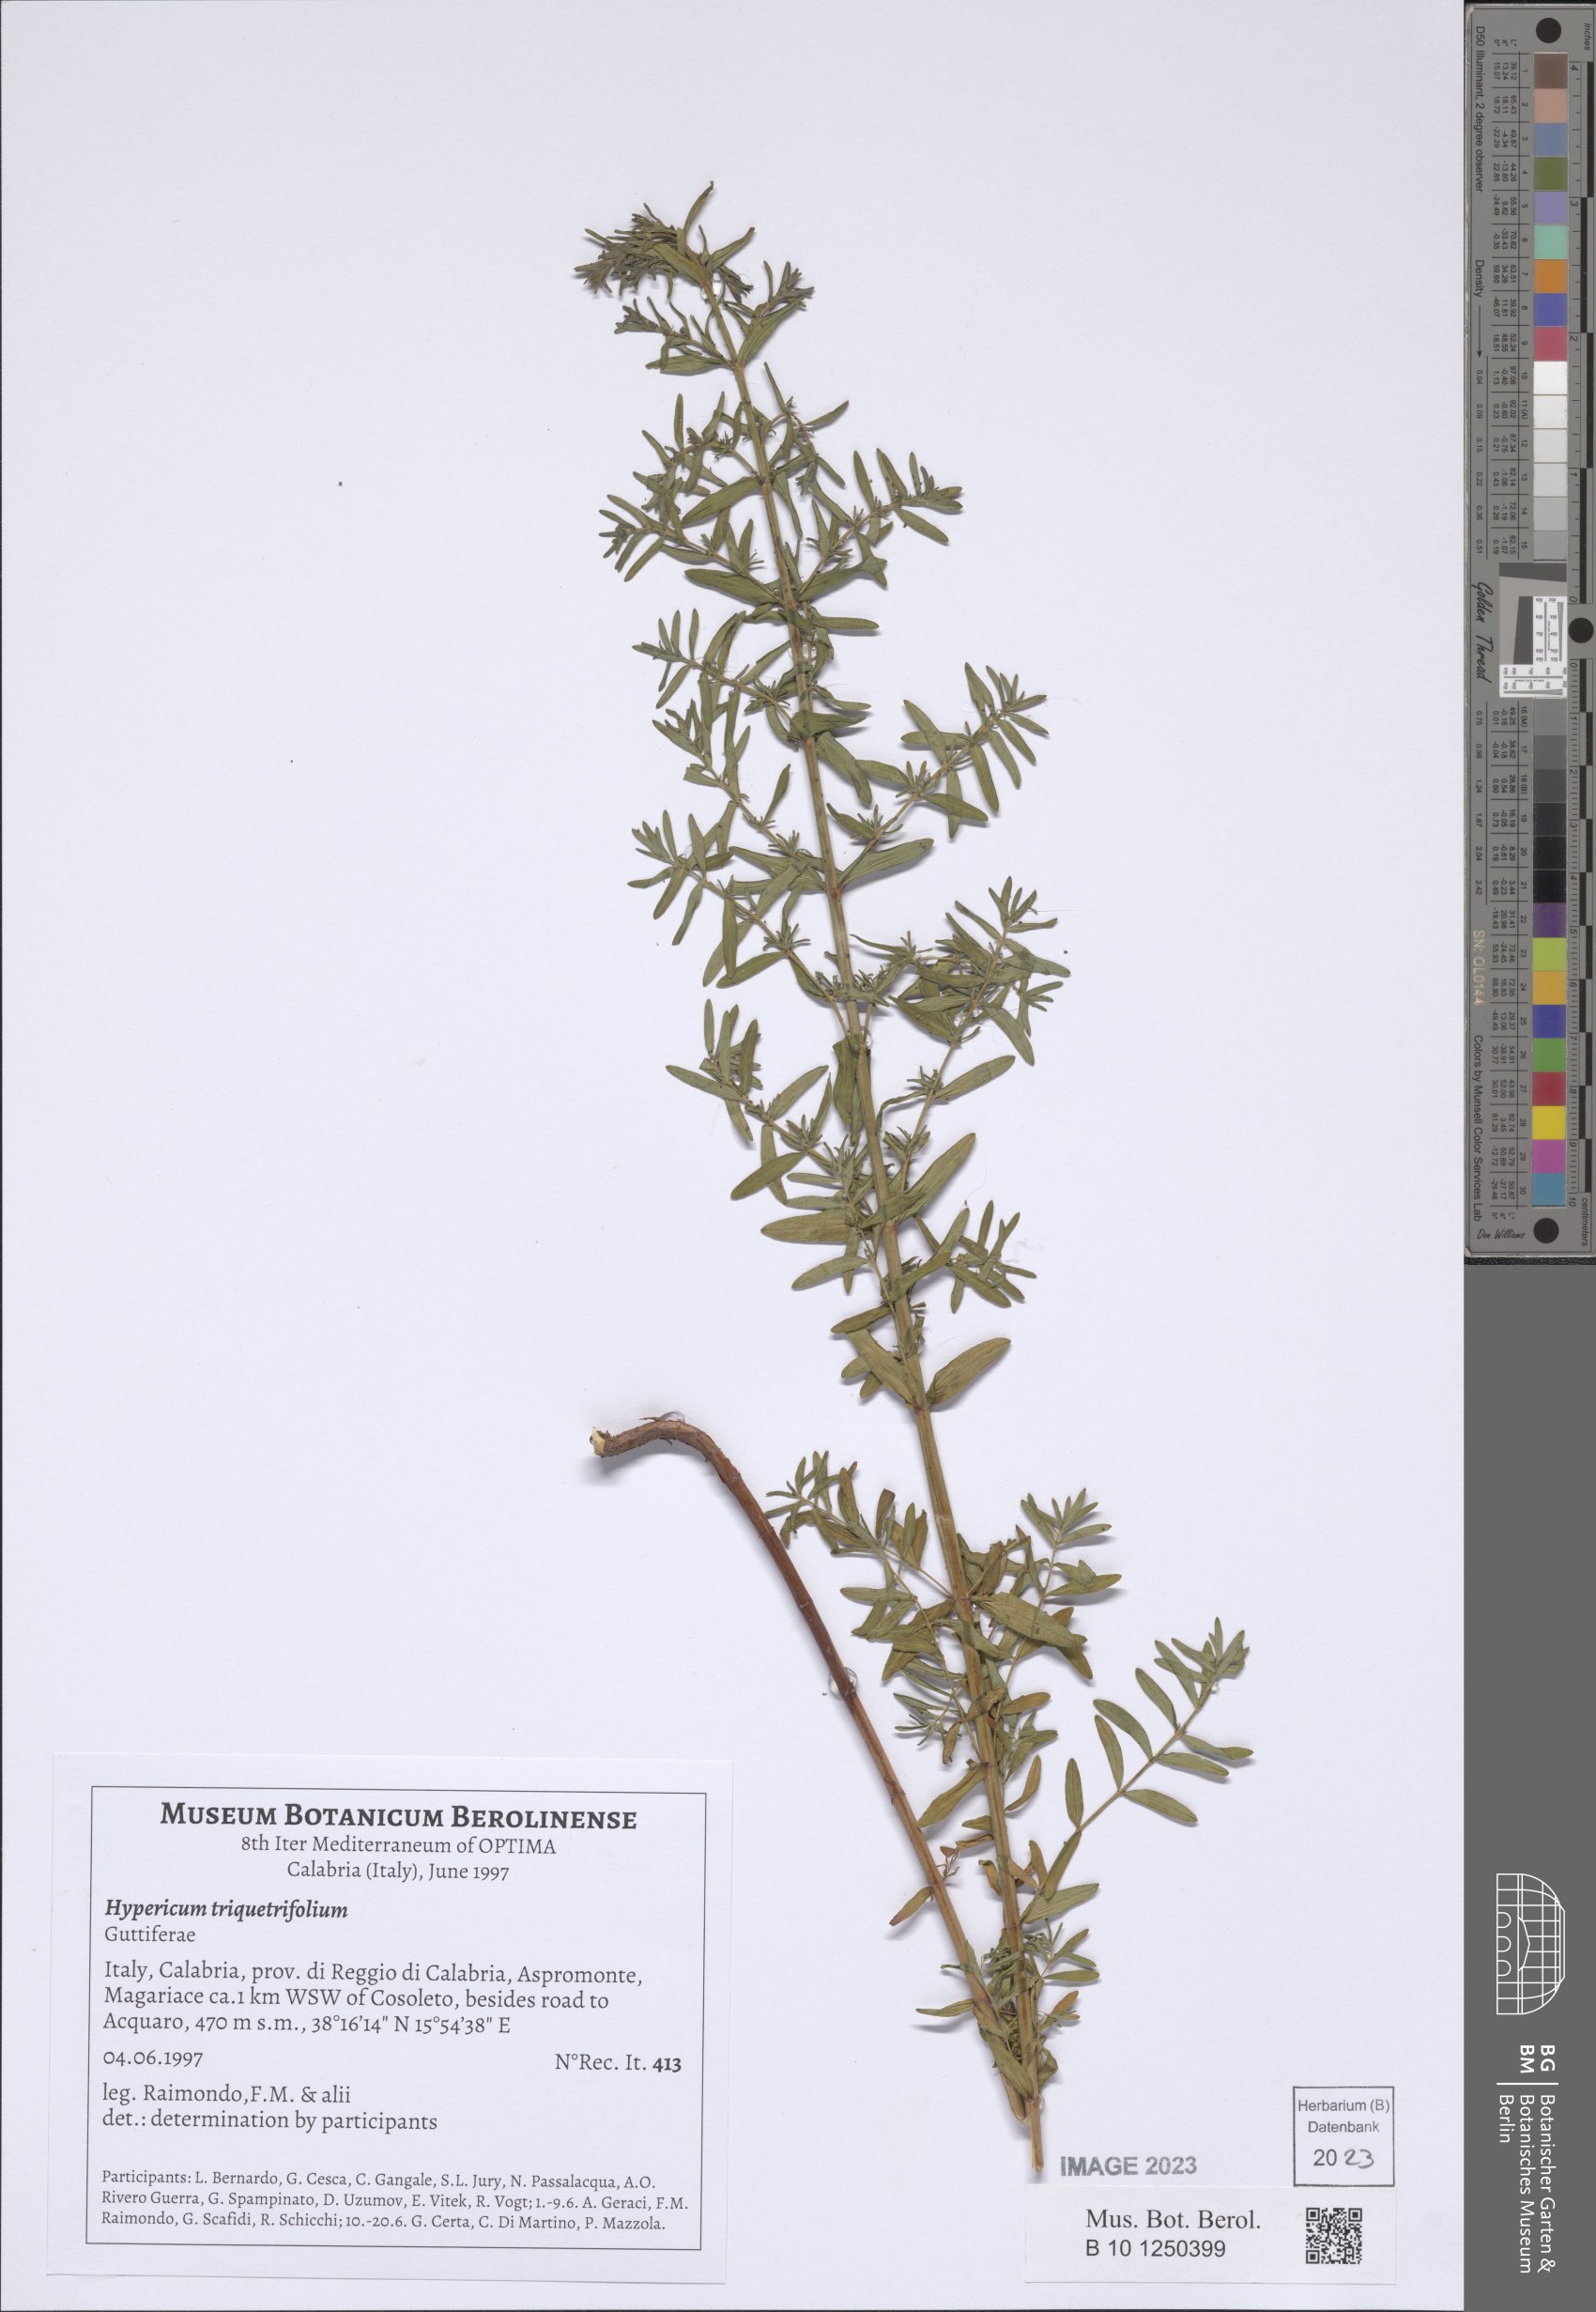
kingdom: Plantae
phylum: Tracheophyta
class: Magnoliopsida
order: Malpighiales
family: Hypericaceae
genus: Hypericum
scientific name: Hypericum triquetrifolium
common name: Tangled hypericum
